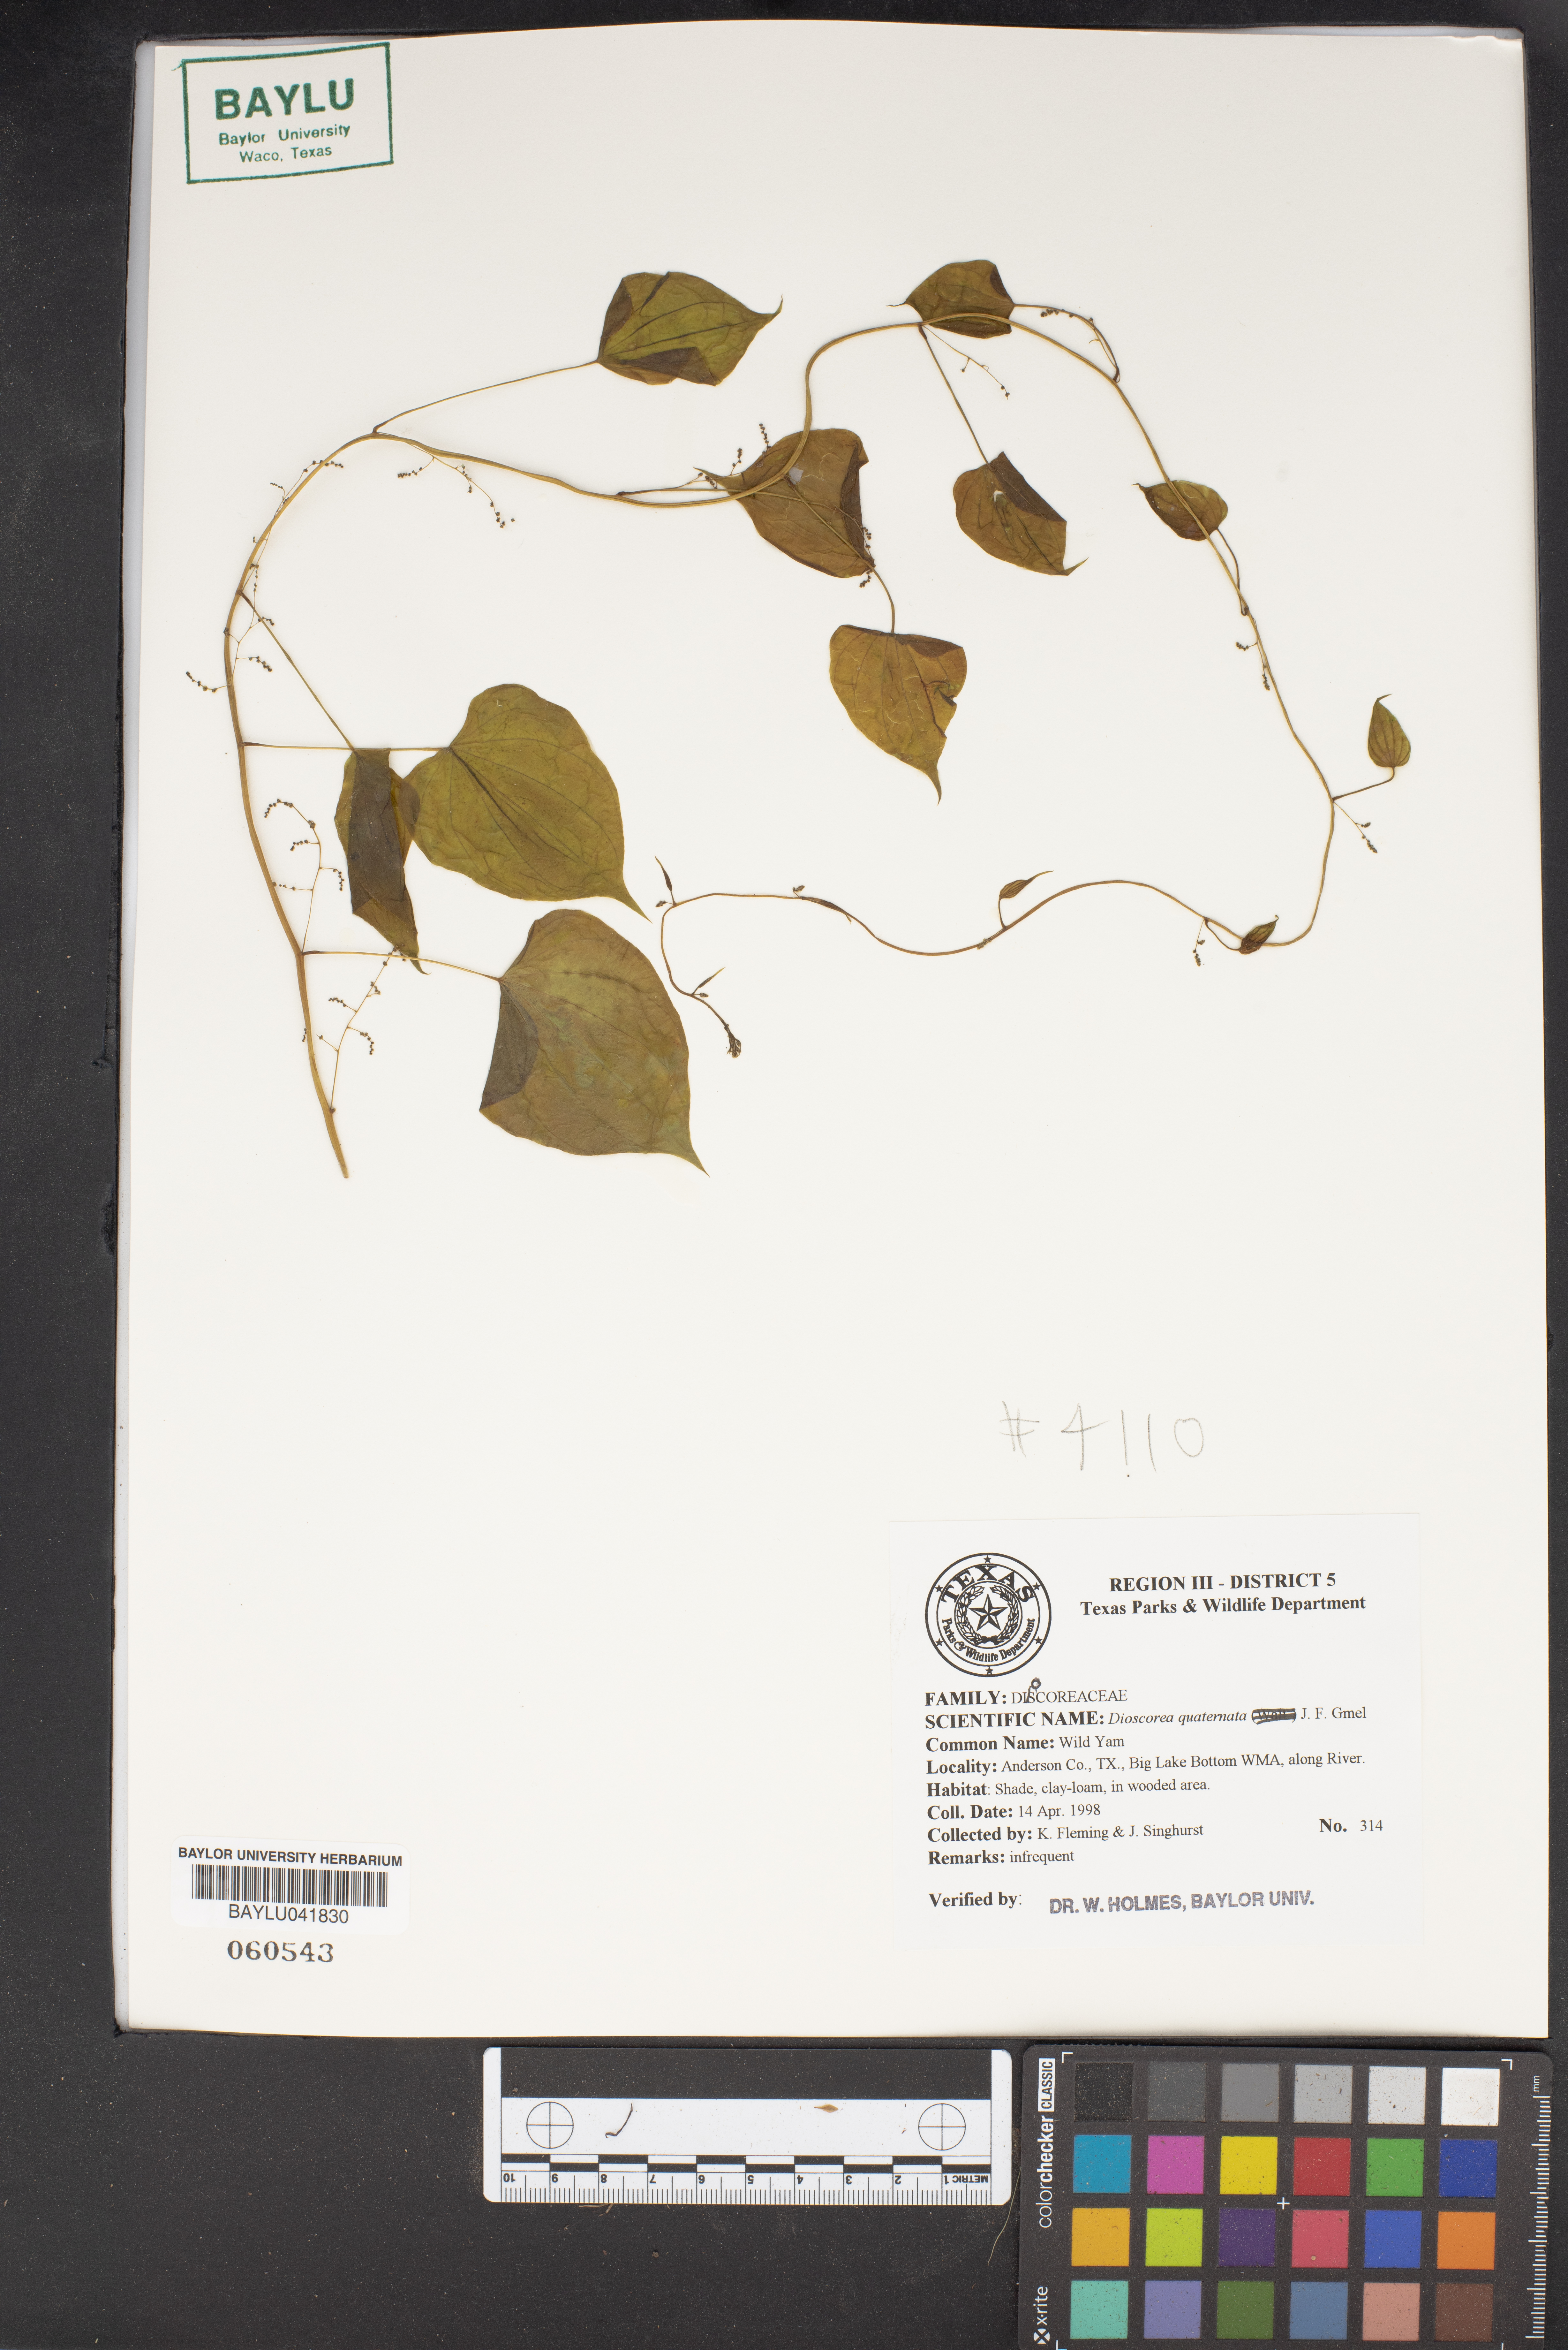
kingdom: Plantae
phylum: Tracheophyta
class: Liliopsida
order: Dioscoreales
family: Dioscoreaceae
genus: Dioscorea
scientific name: Dioscorea quaternata
